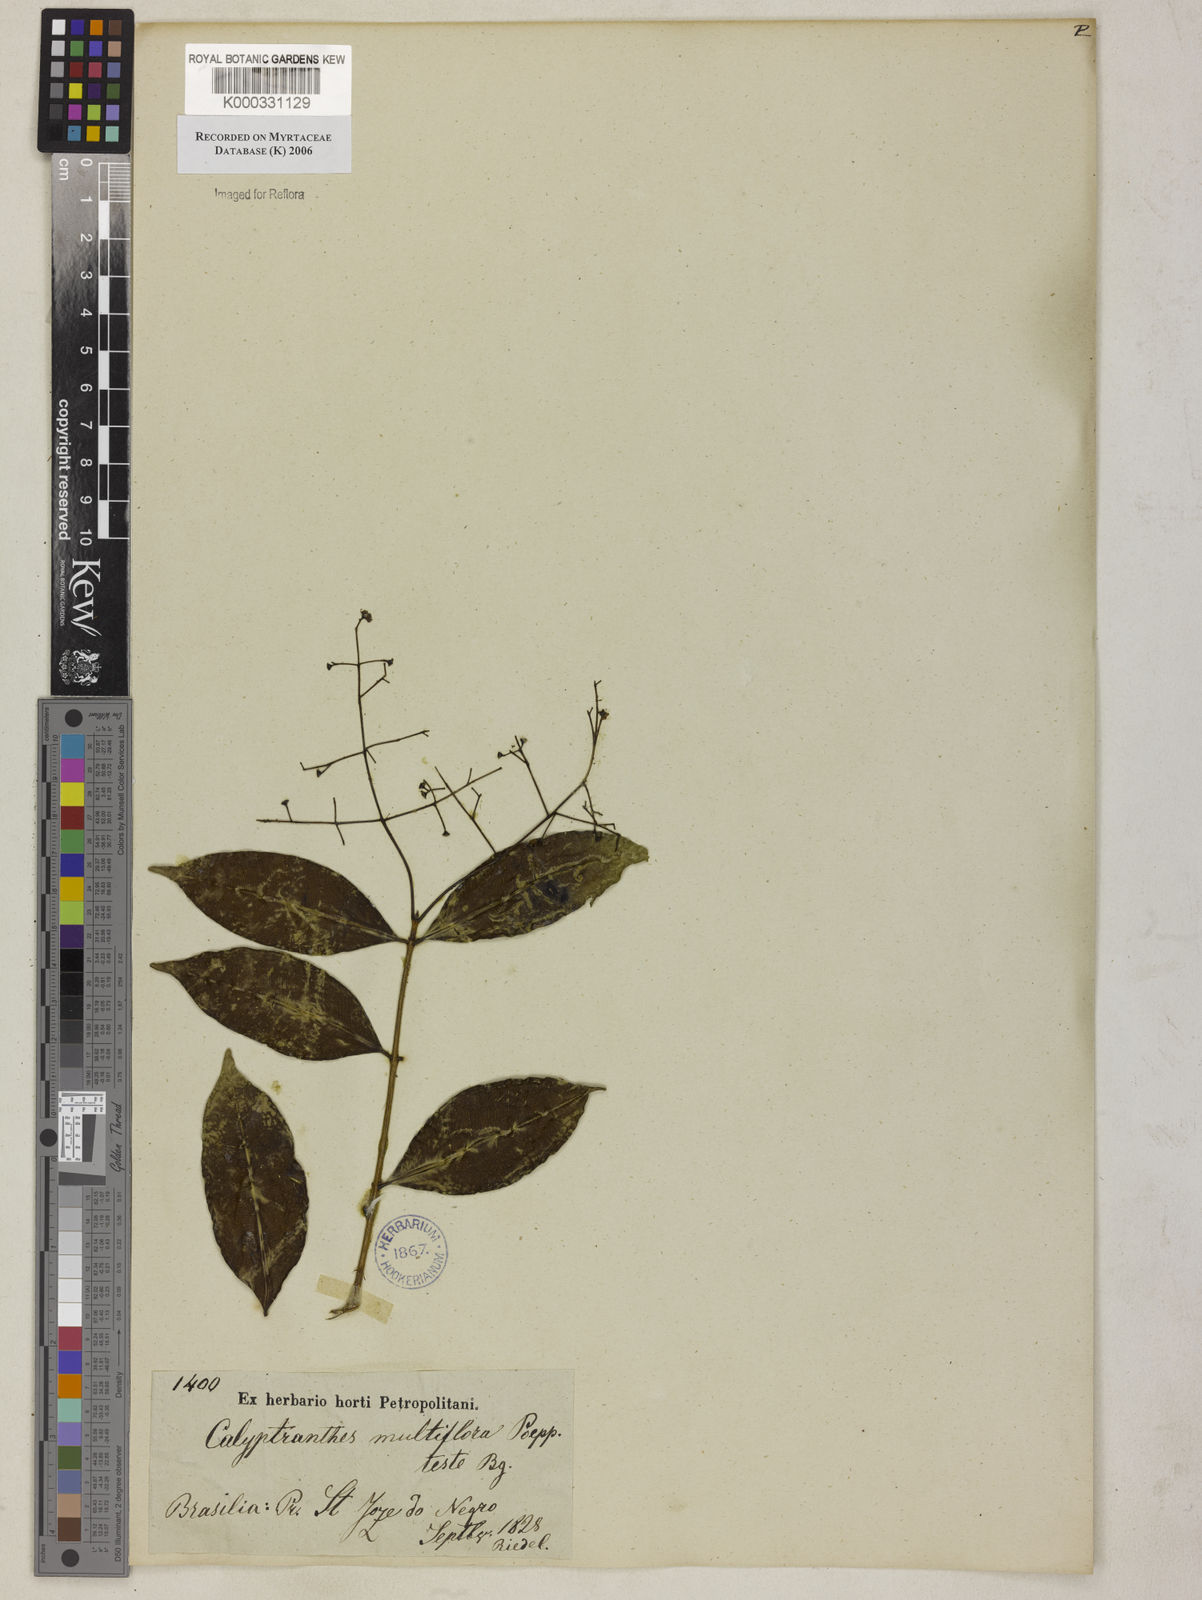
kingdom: Plantae
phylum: Tracheophyta
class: Magnoliopsida
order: Myrtales
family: Myrtaceae
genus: Myrcia
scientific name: Myrcia aulomyrcioides
